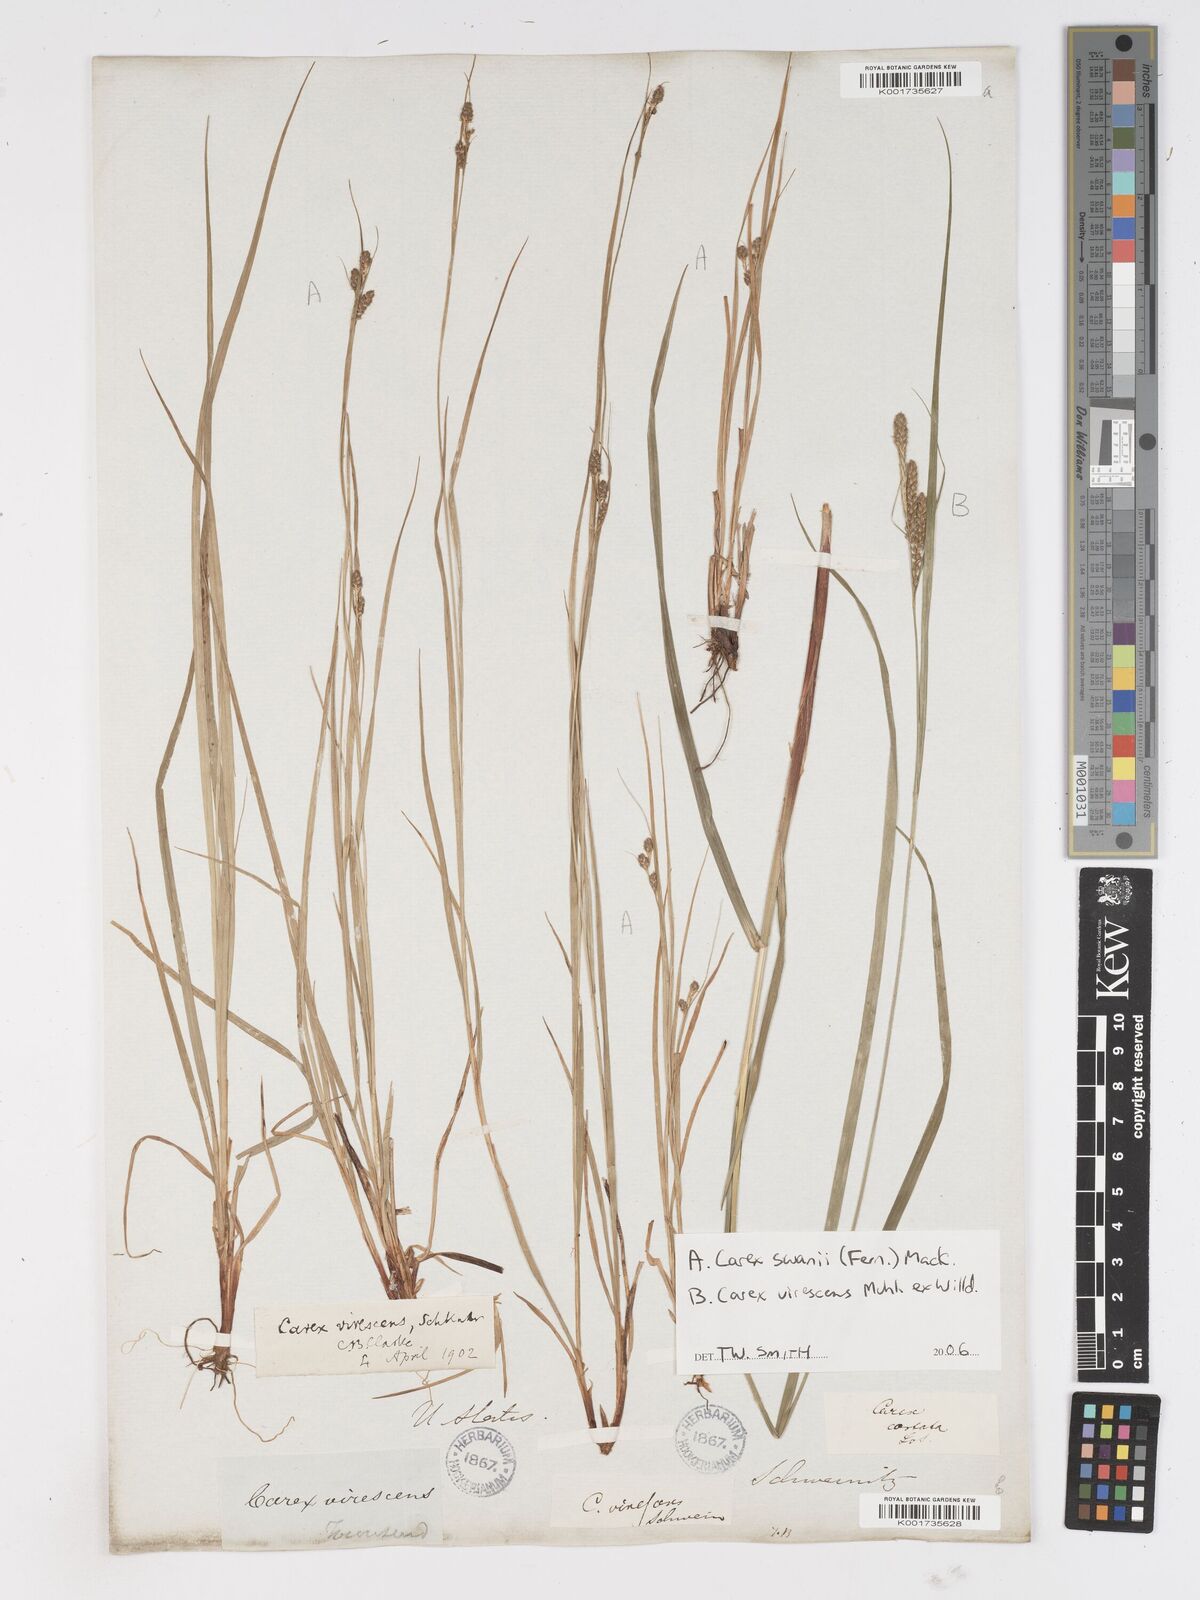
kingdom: Plantae
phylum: Tracheophyta
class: Liliopsida
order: Poales
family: Cyperaceae
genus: Carex
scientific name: Carex
